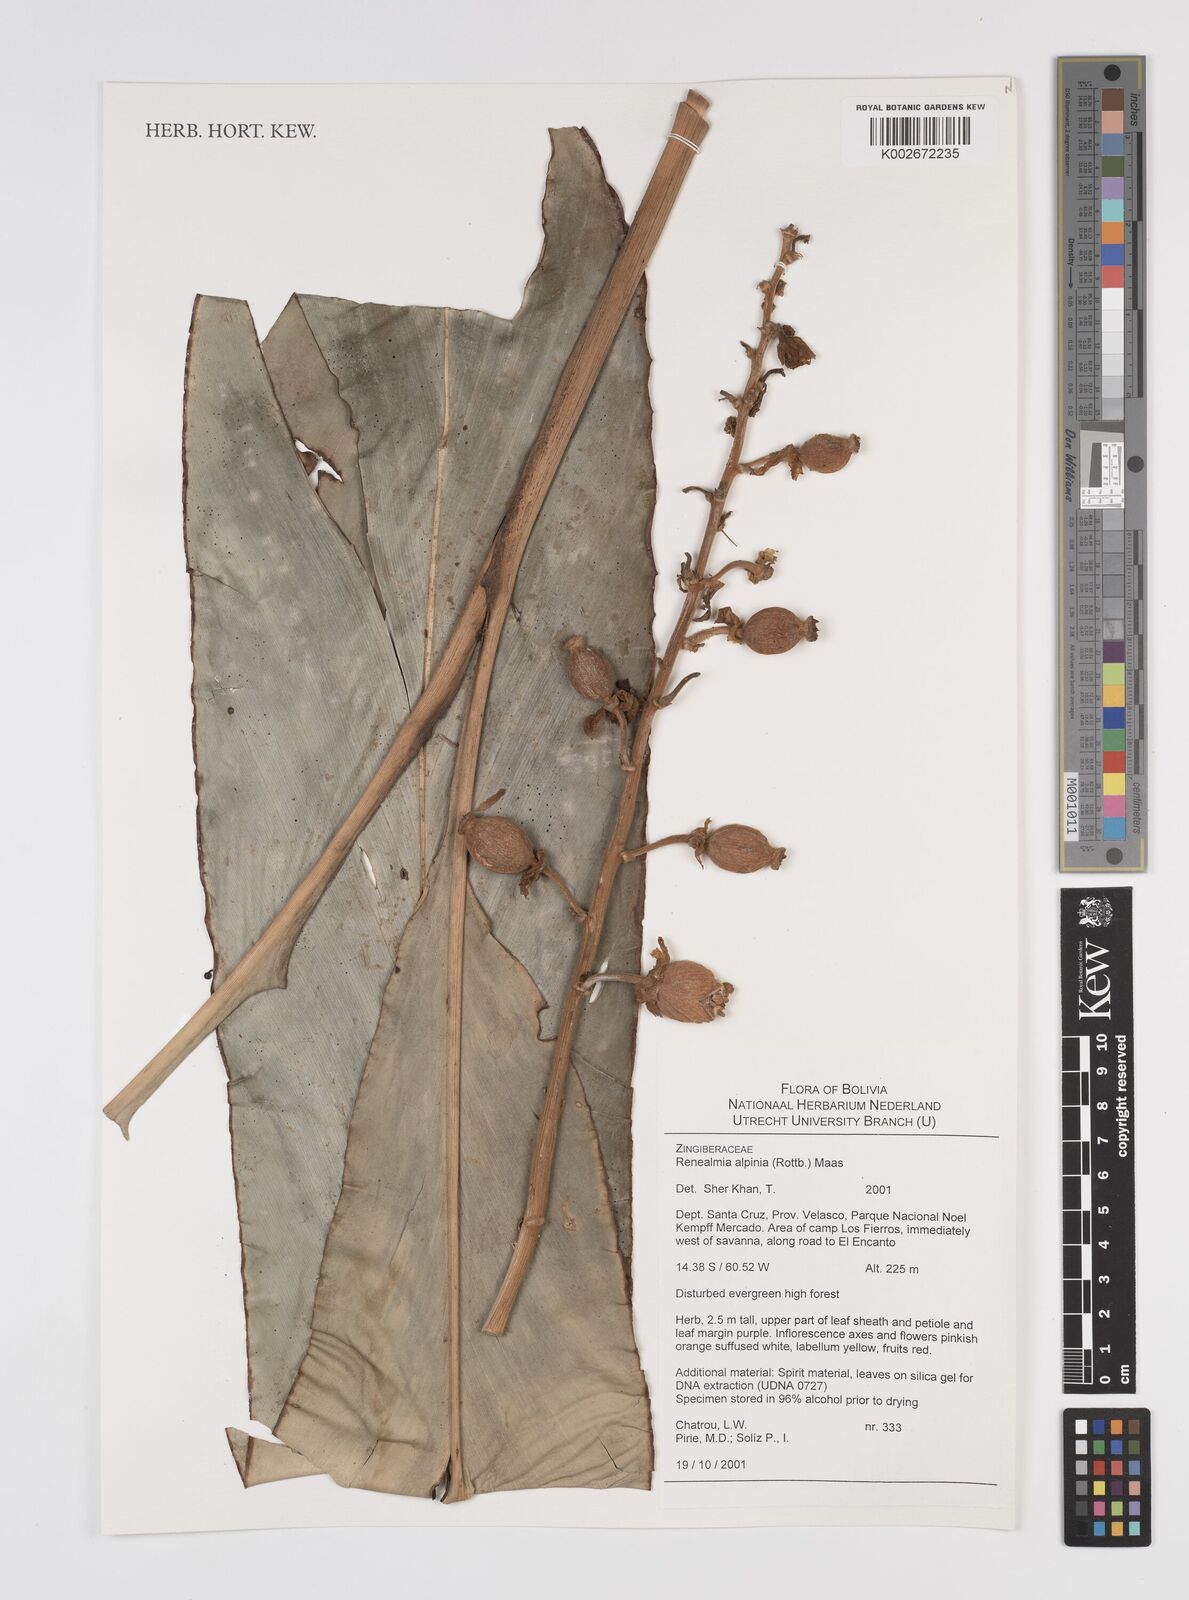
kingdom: Plantae
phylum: Tracheophyta
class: Liliopsida
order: Zingiberales
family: Zingiberaceae
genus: Renealmia
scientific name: Renealmia alpinia
